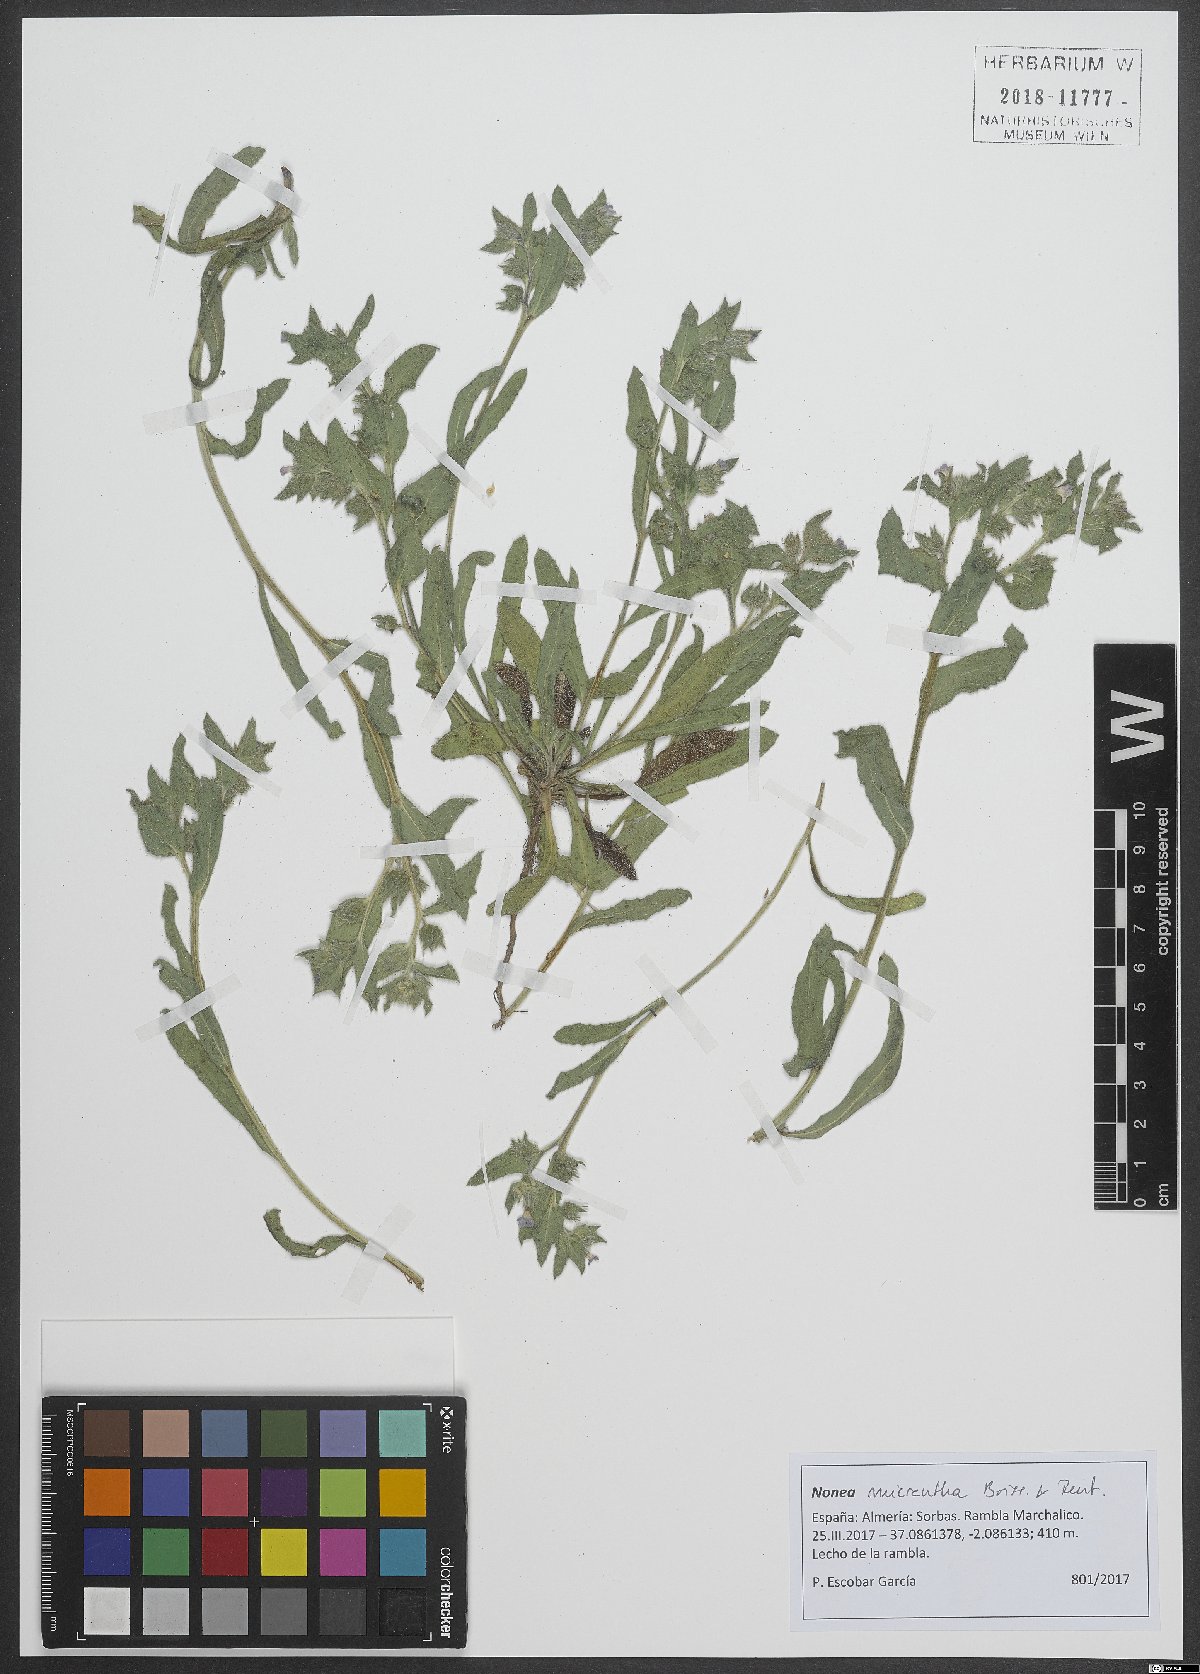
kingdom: Plantae
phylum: Tracheophyta
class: Magnoliopsida
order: Boraginales
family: Boraginaceae
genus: Nonea
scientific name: Nonea micrantha
